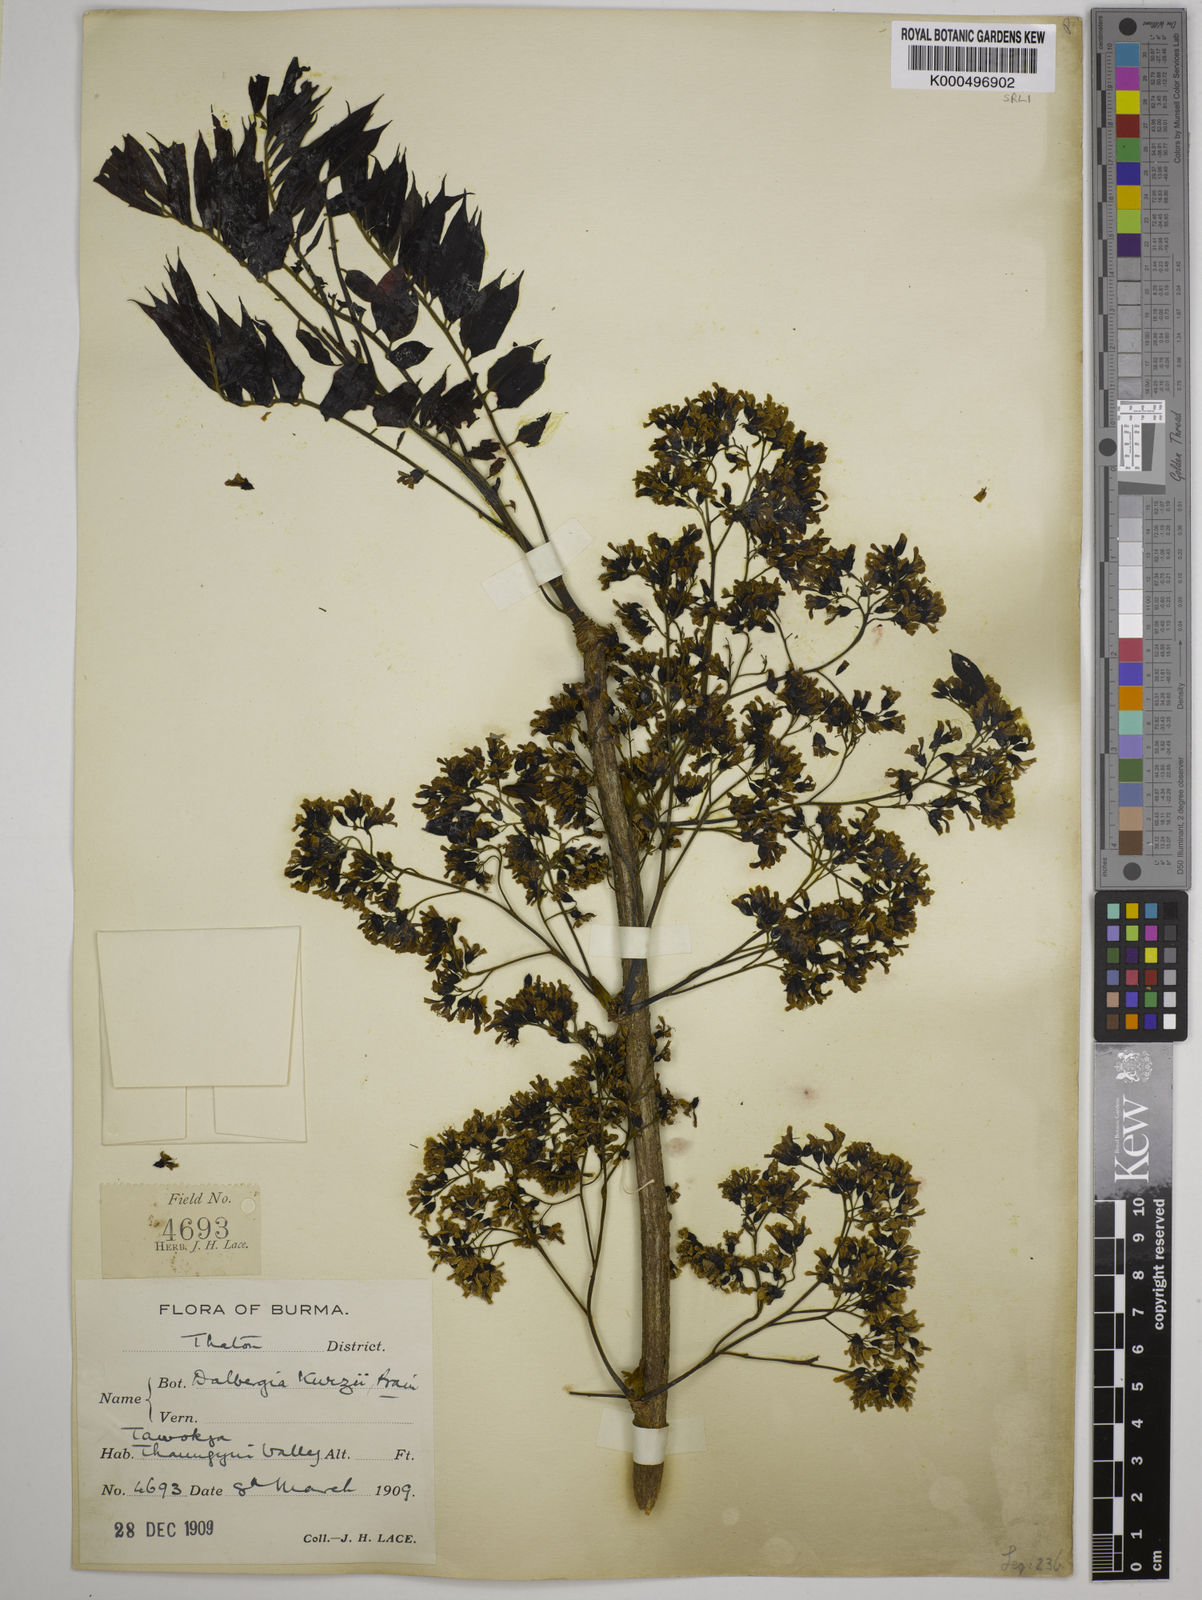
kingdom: Plantae
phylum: Tracheophyta
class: Magnoliopsida
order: Fabales
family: Fabaceae
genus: Dalbergia
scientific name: Dalbergia cana
